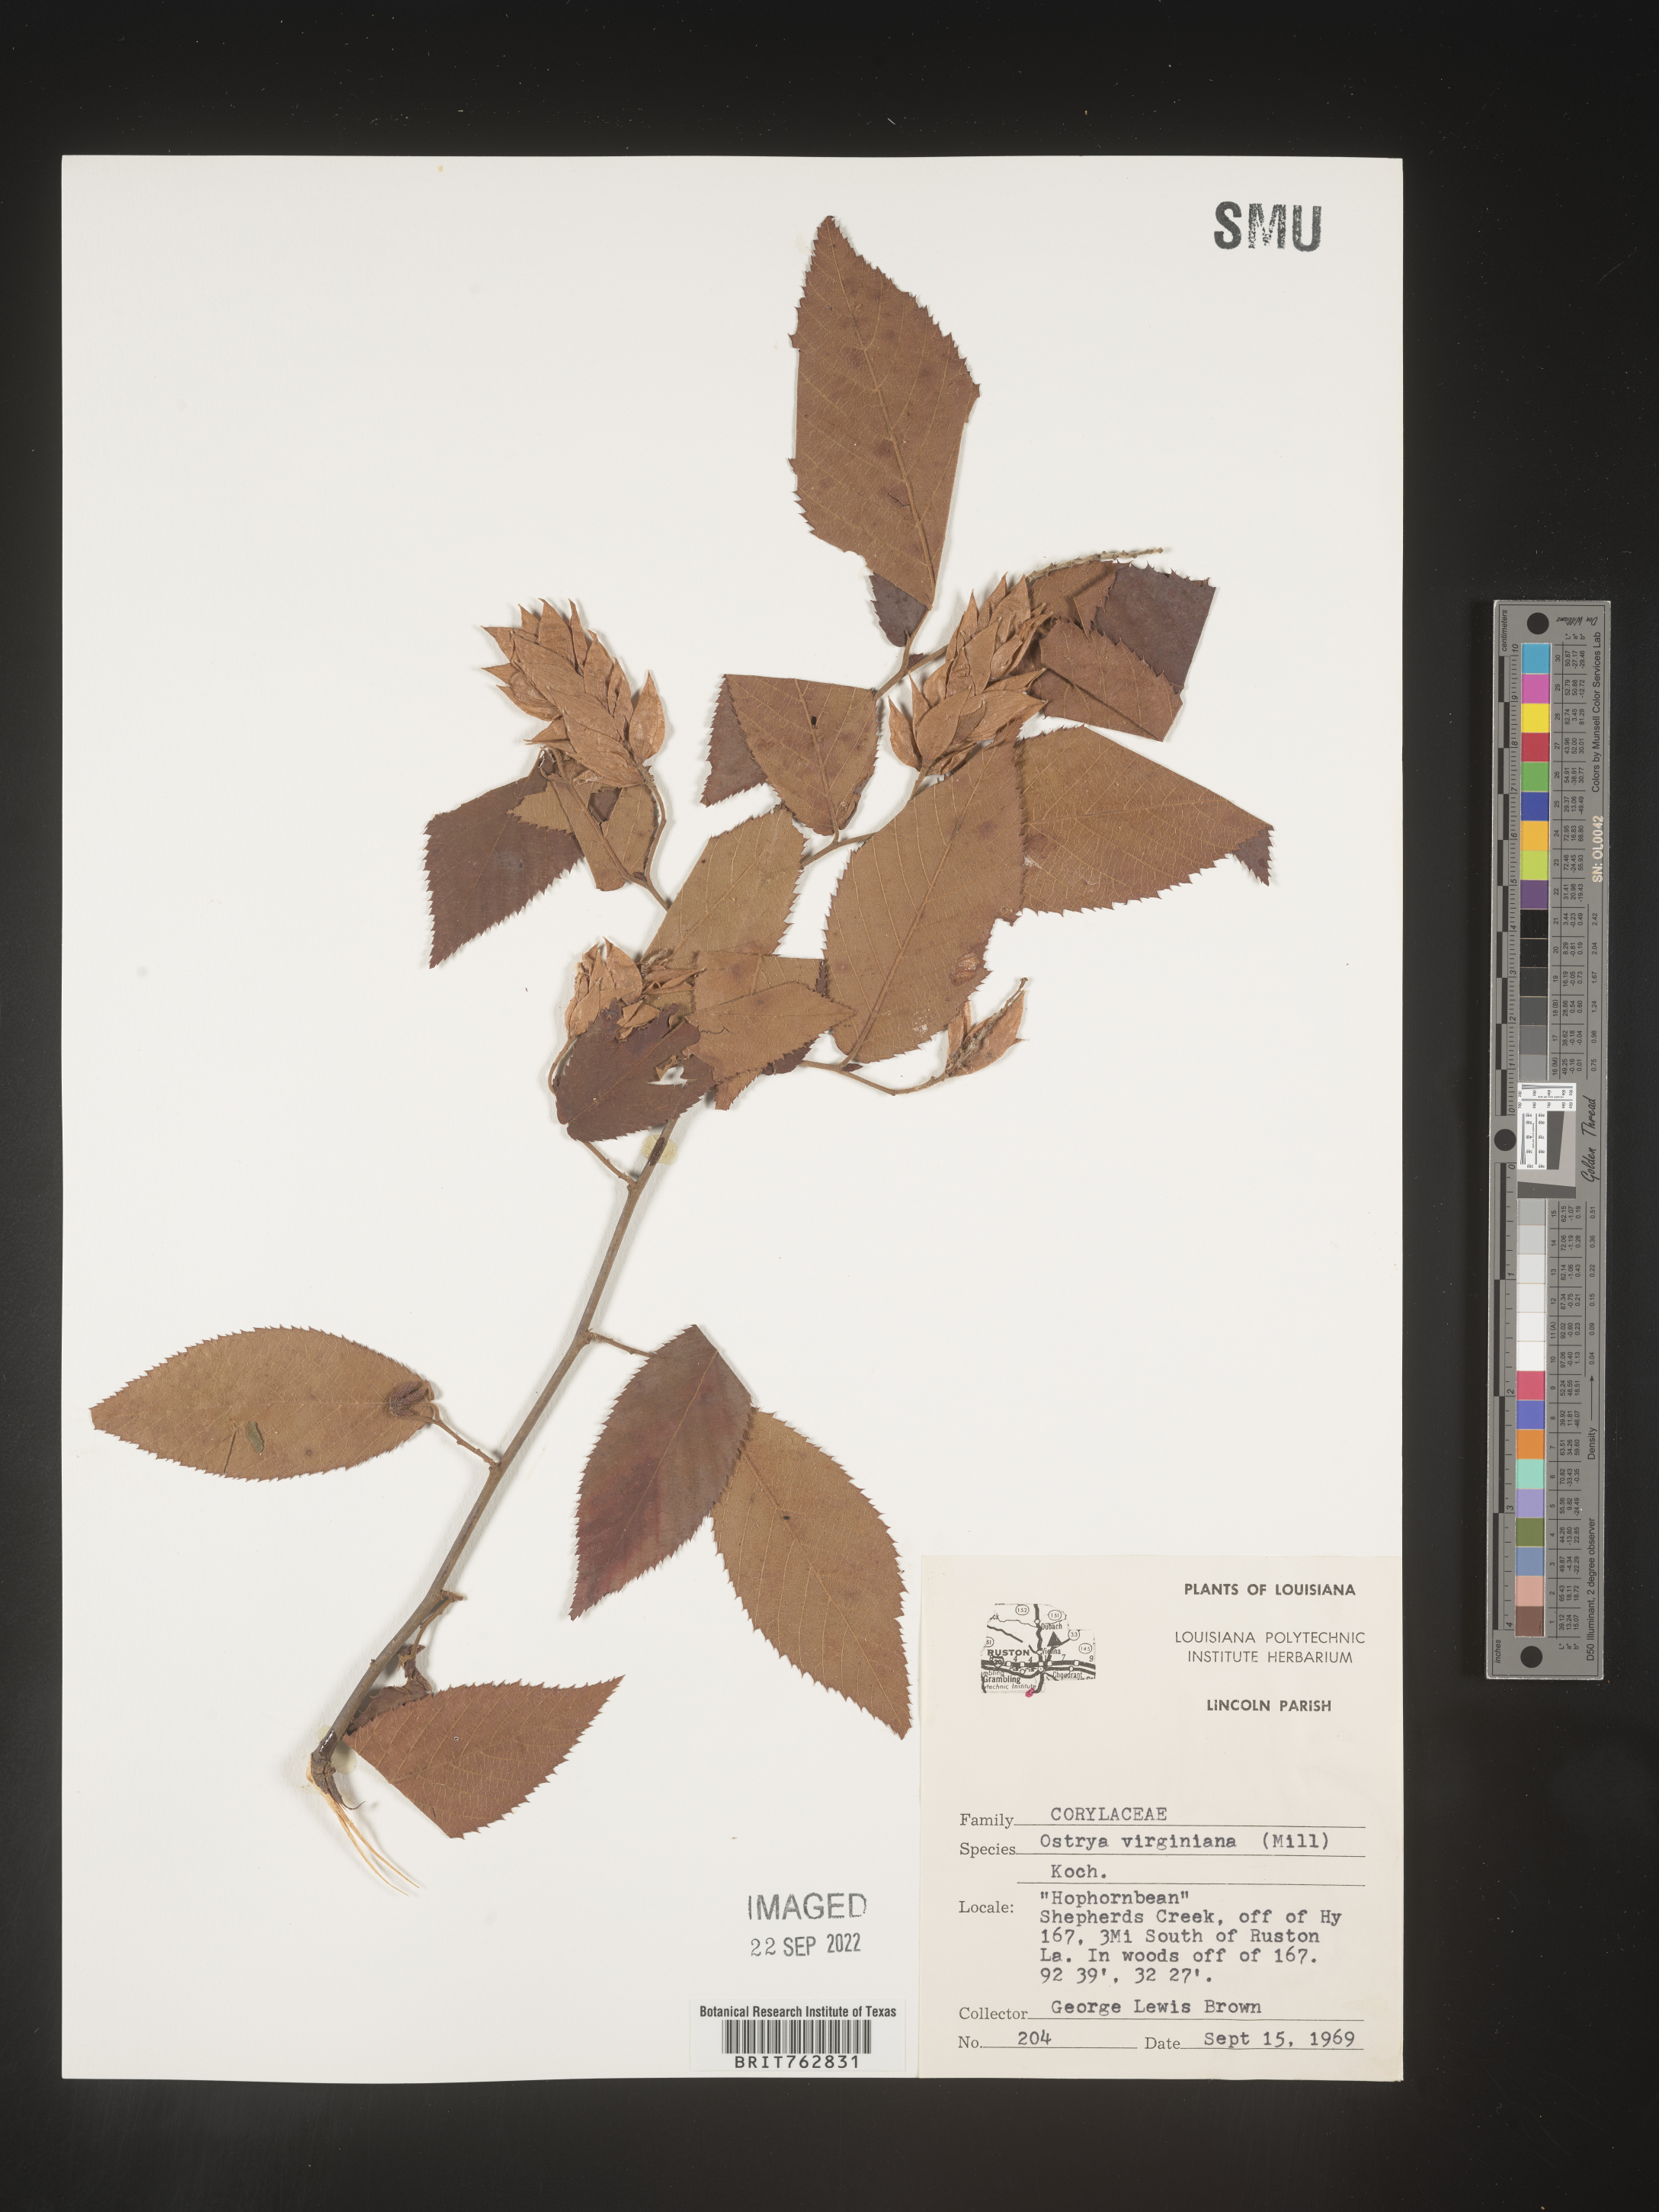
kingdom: Plantae
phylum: Tracheophyta
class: Magnoliopsida
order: Fagales
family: Betulaceae
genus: Ostrya
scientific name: Ostrya virginiana
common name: Ironwood
